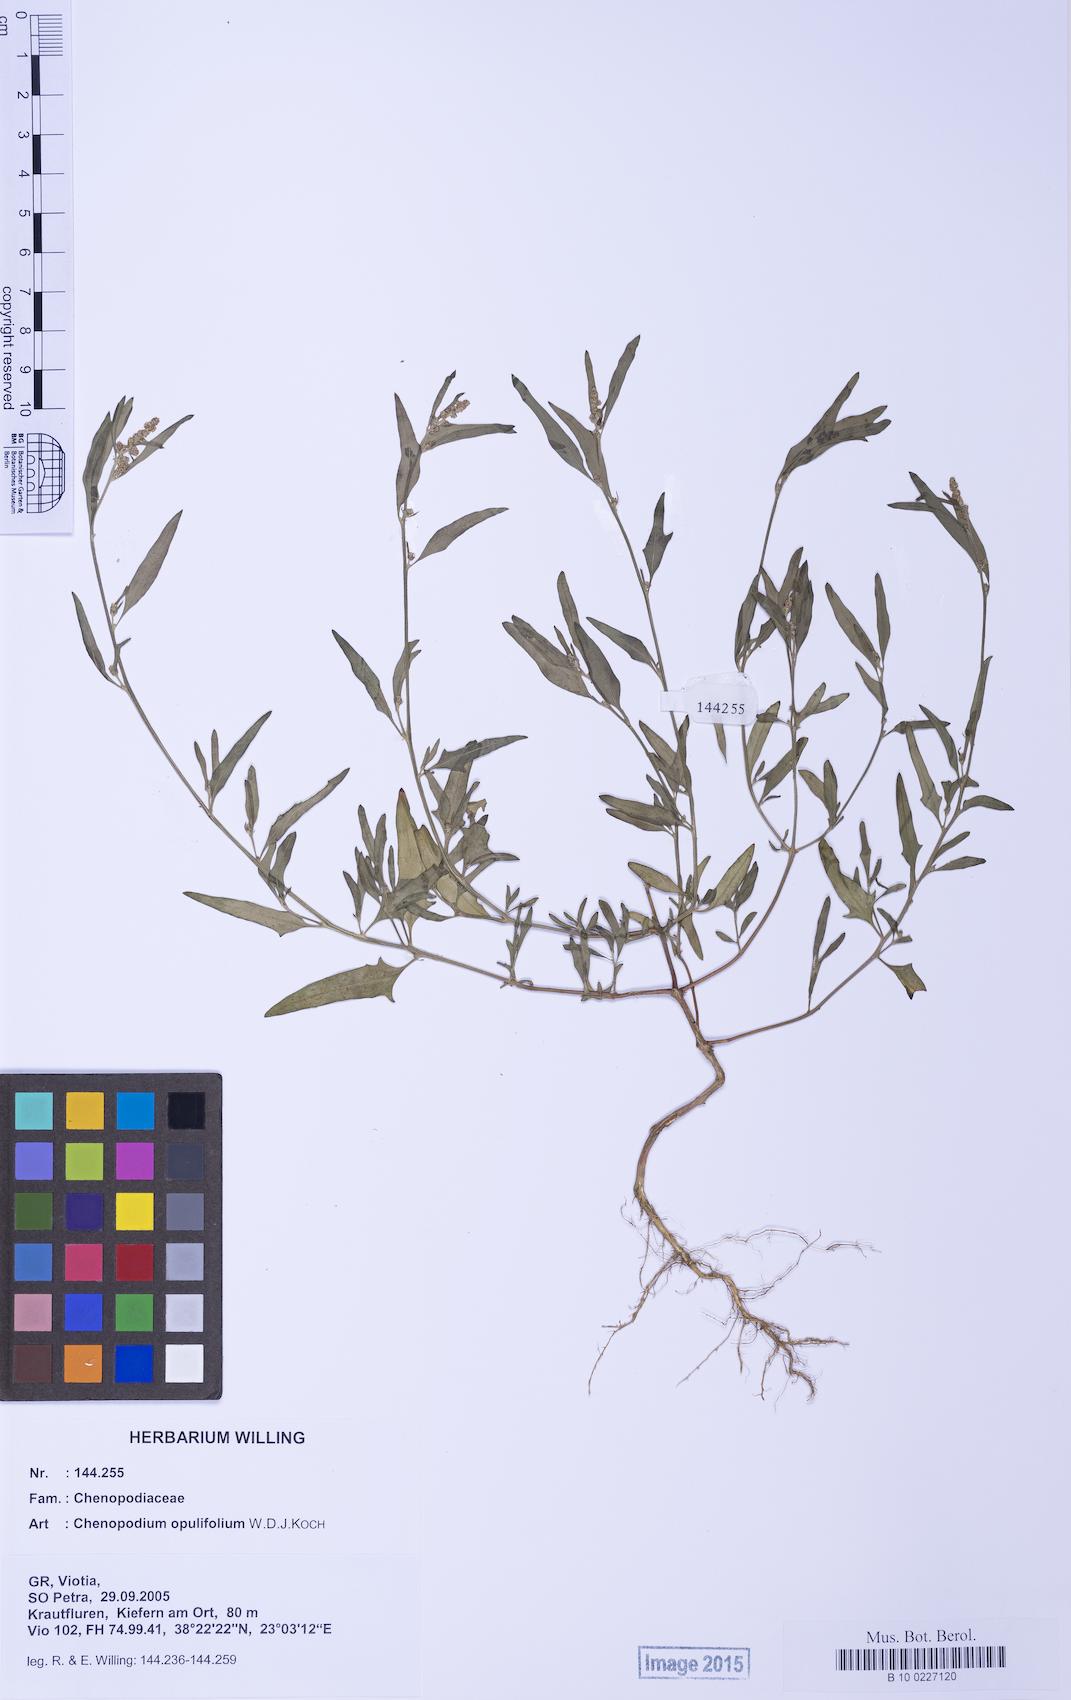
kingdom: Plantae
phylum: Tracheophyta
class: Magnoliopsida
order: Caryophyllales
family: Amaranthaceae
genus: Atriplex
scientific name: Atriplex prostrata
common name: Spear-leaved orache
